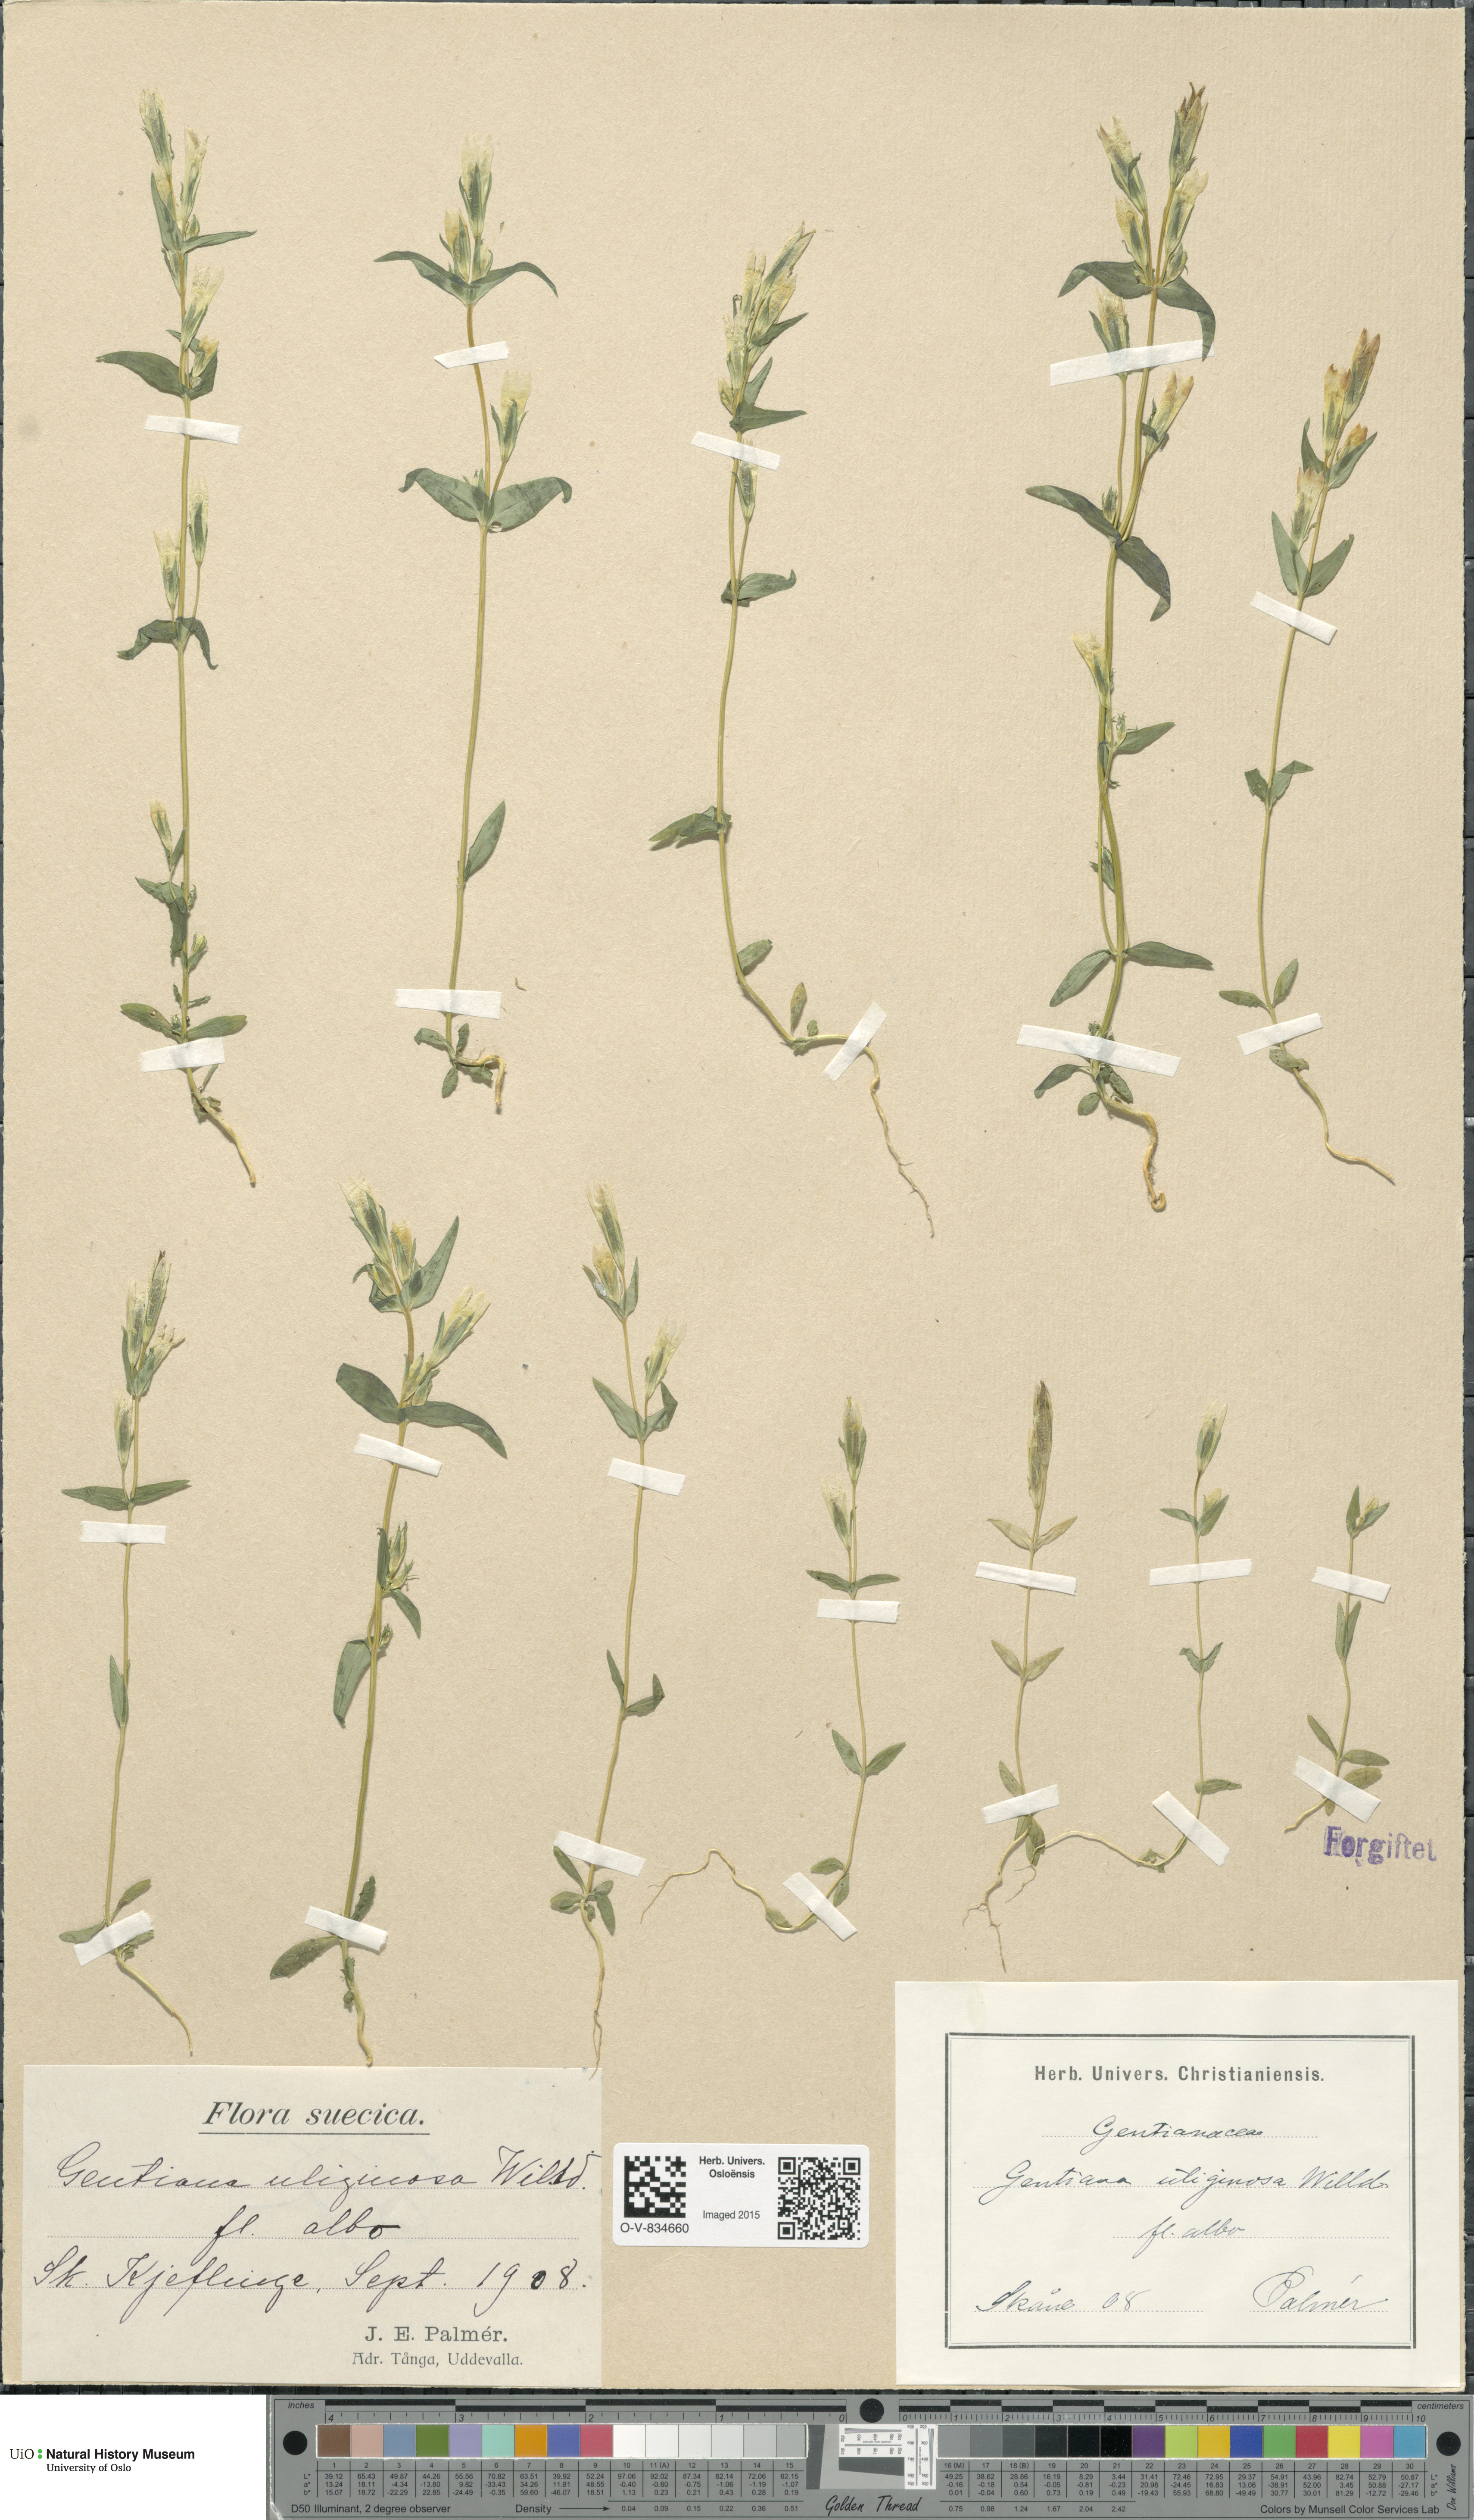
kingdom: Plantae
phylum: Tracheophyta
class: Magnoliopsida
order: Gentianales
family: Gentianaceae
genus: Gentianella
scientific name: Gentianella uliginosa
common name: Dune gentian
